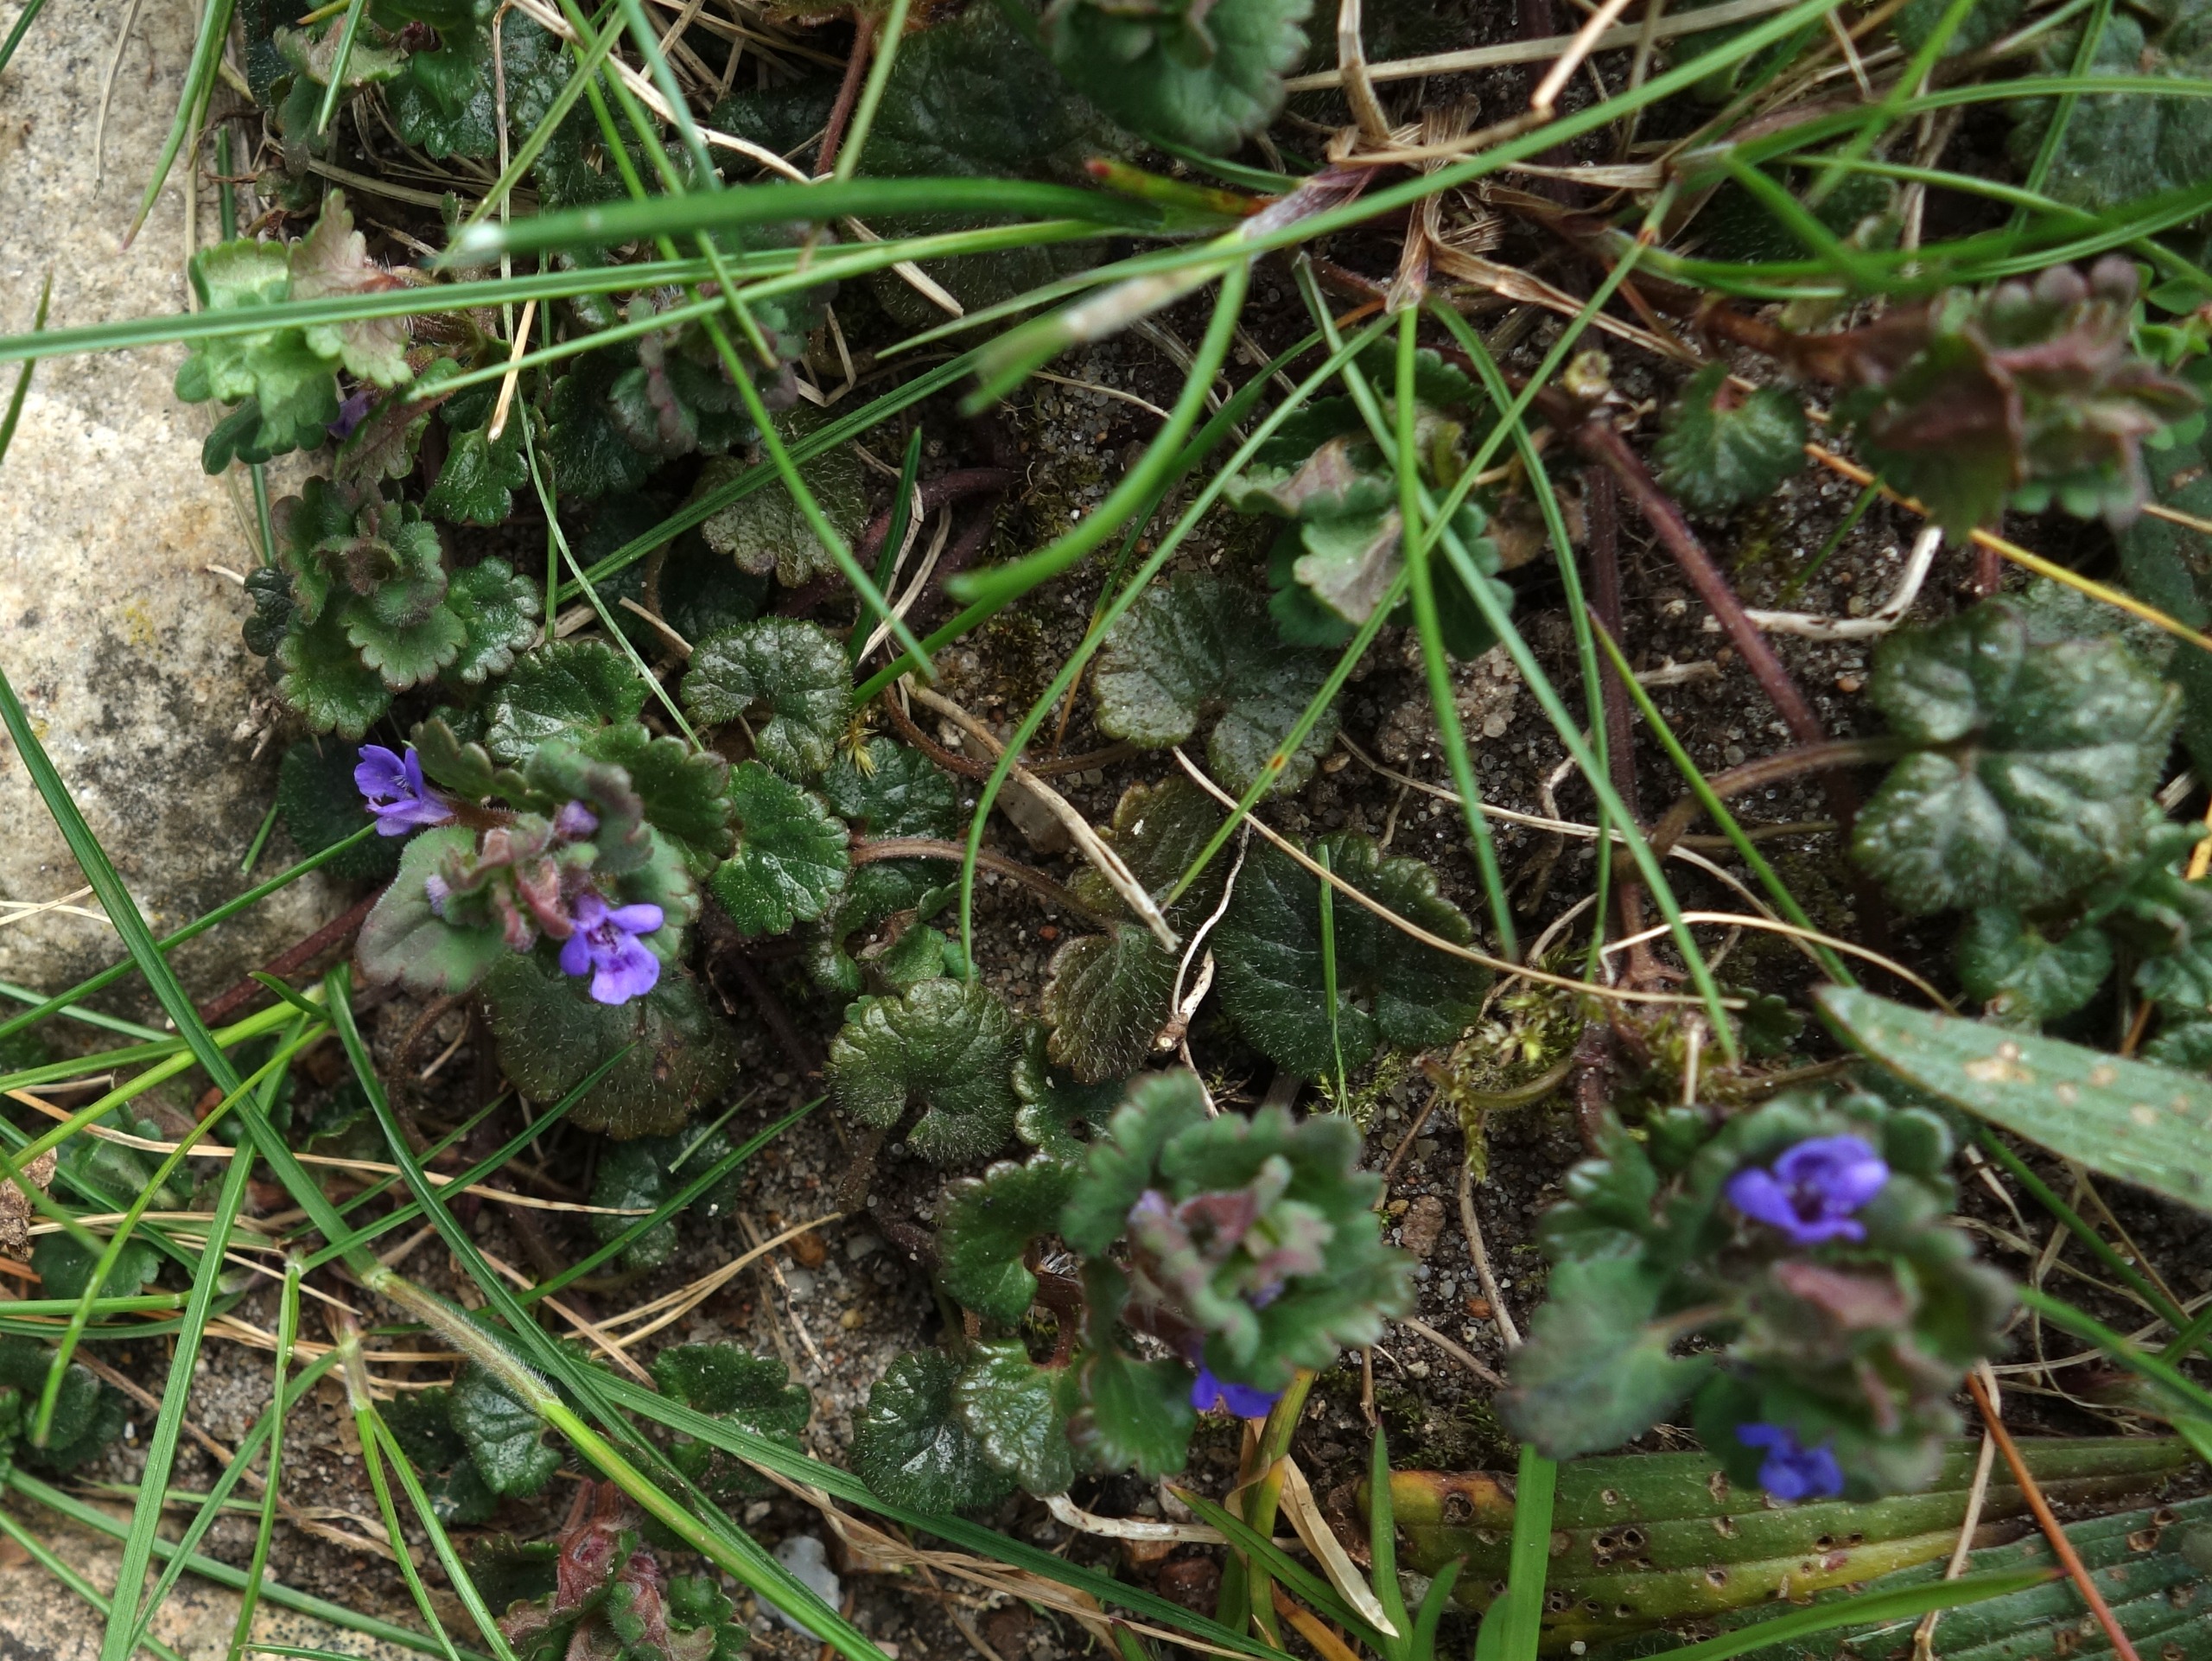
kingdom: Plantae
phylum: Tracheophyta
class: Magnoliopsida
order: Lamiales
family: Lamiaceae
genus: Glechoma
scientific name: Glechoma hederacea
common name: Korsknap
